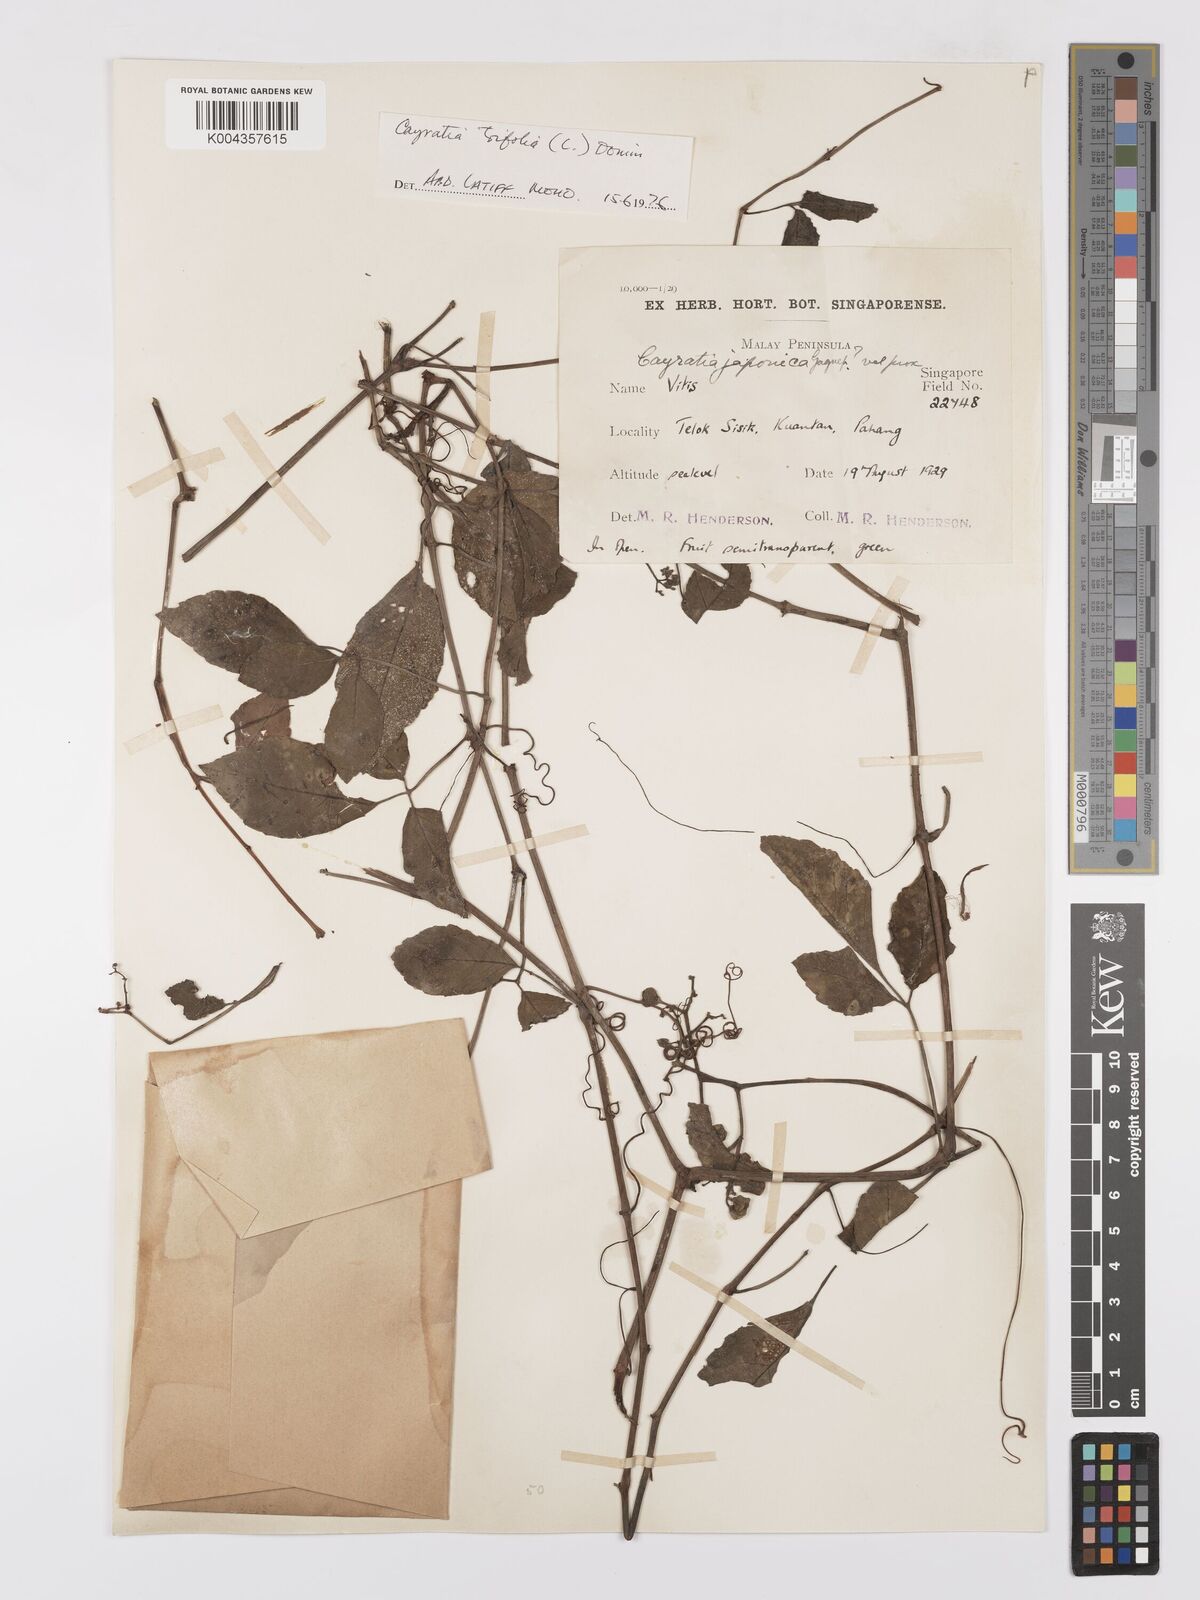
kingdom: Plantae
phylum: Tracheophyta
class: Magnoliopsida
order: Vitales
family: Vitaceae
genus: Causonis
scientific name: Causonis trifolia
